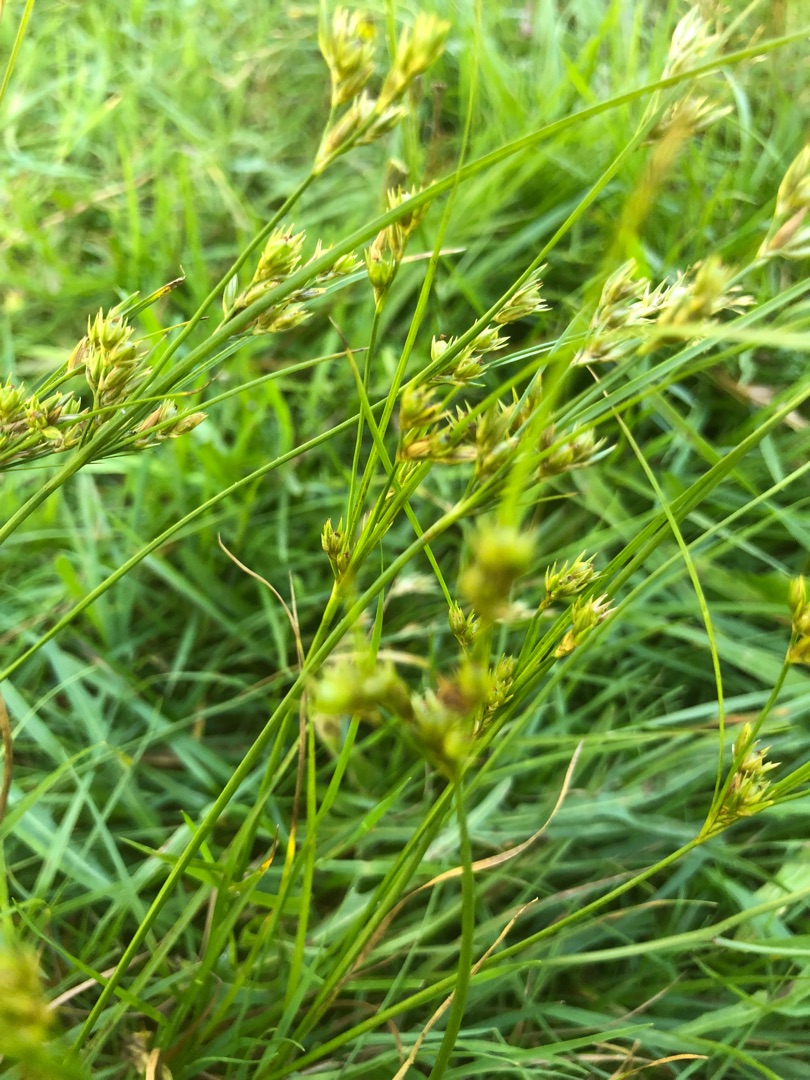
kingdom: Plantae
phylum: Tracheophyta
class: Liliopsida
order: Poales
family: Juncaceae
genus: Juncus
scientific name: Juncus tenuis
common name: Tue-siv
